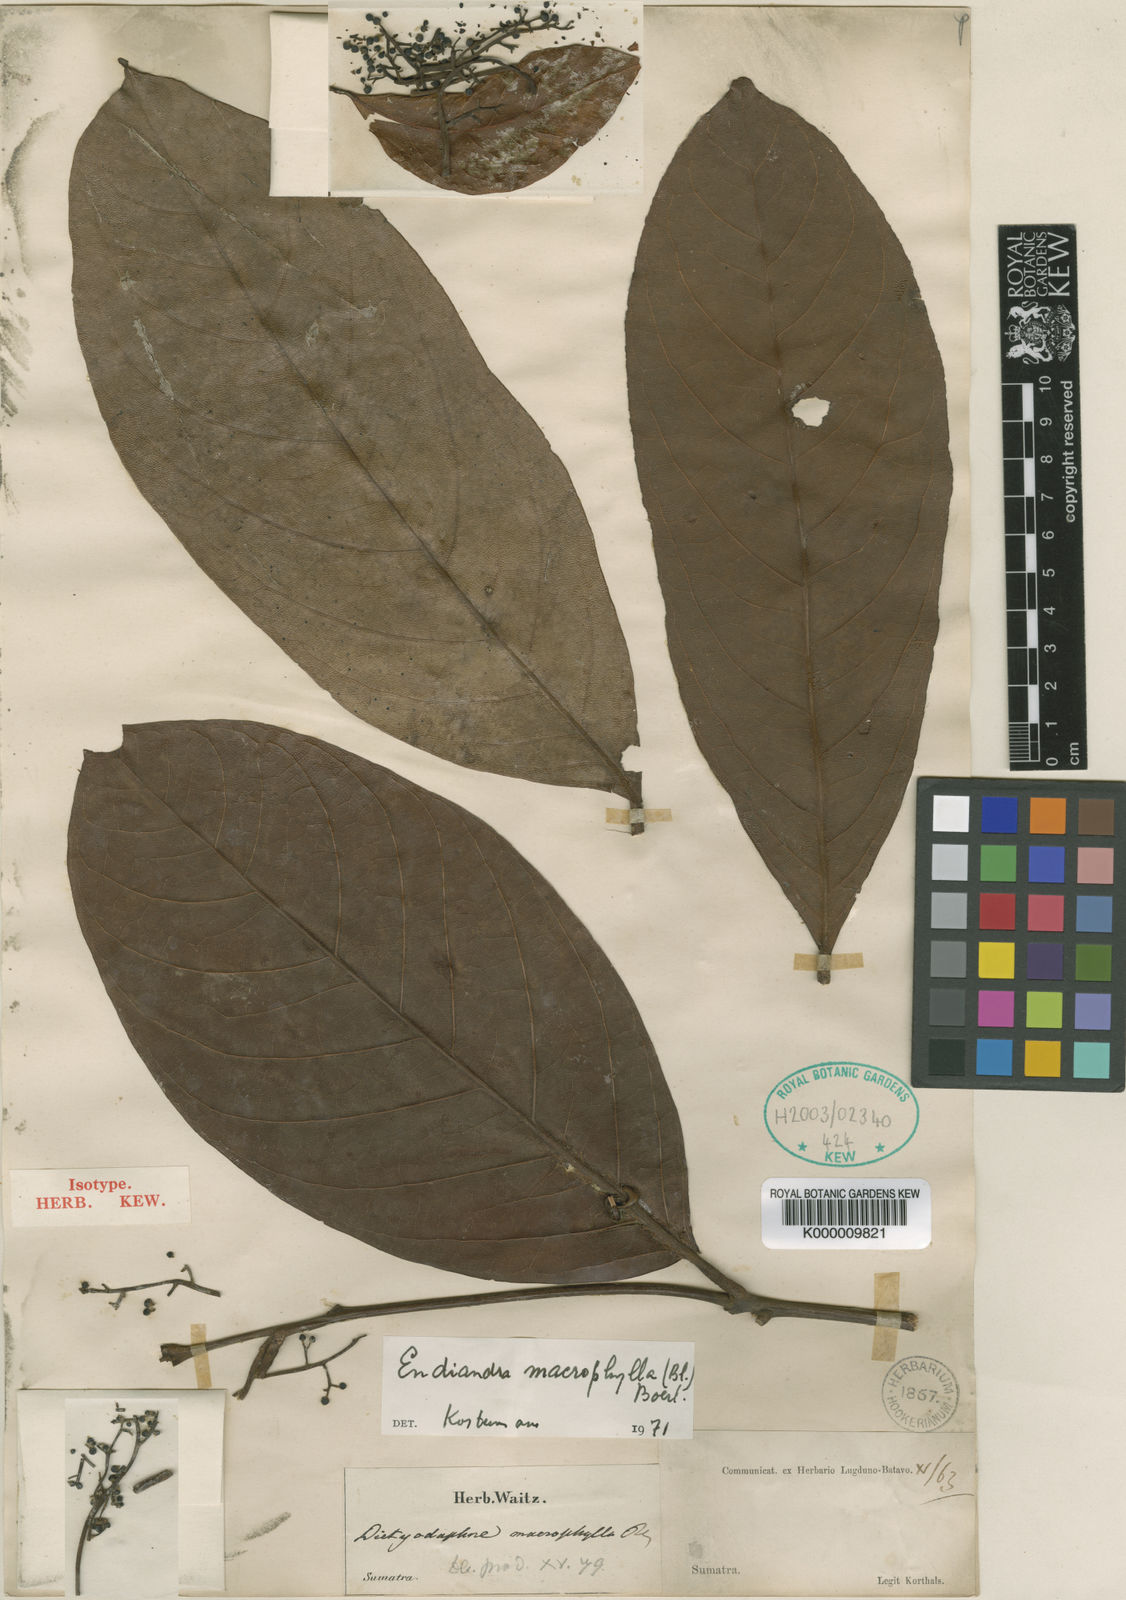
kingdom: Plantae
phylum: Tracheophyta
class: Magnoliopsida
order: Laurales
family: Lauraceae
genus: Endiandra
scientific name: Endiandra macrophylla
